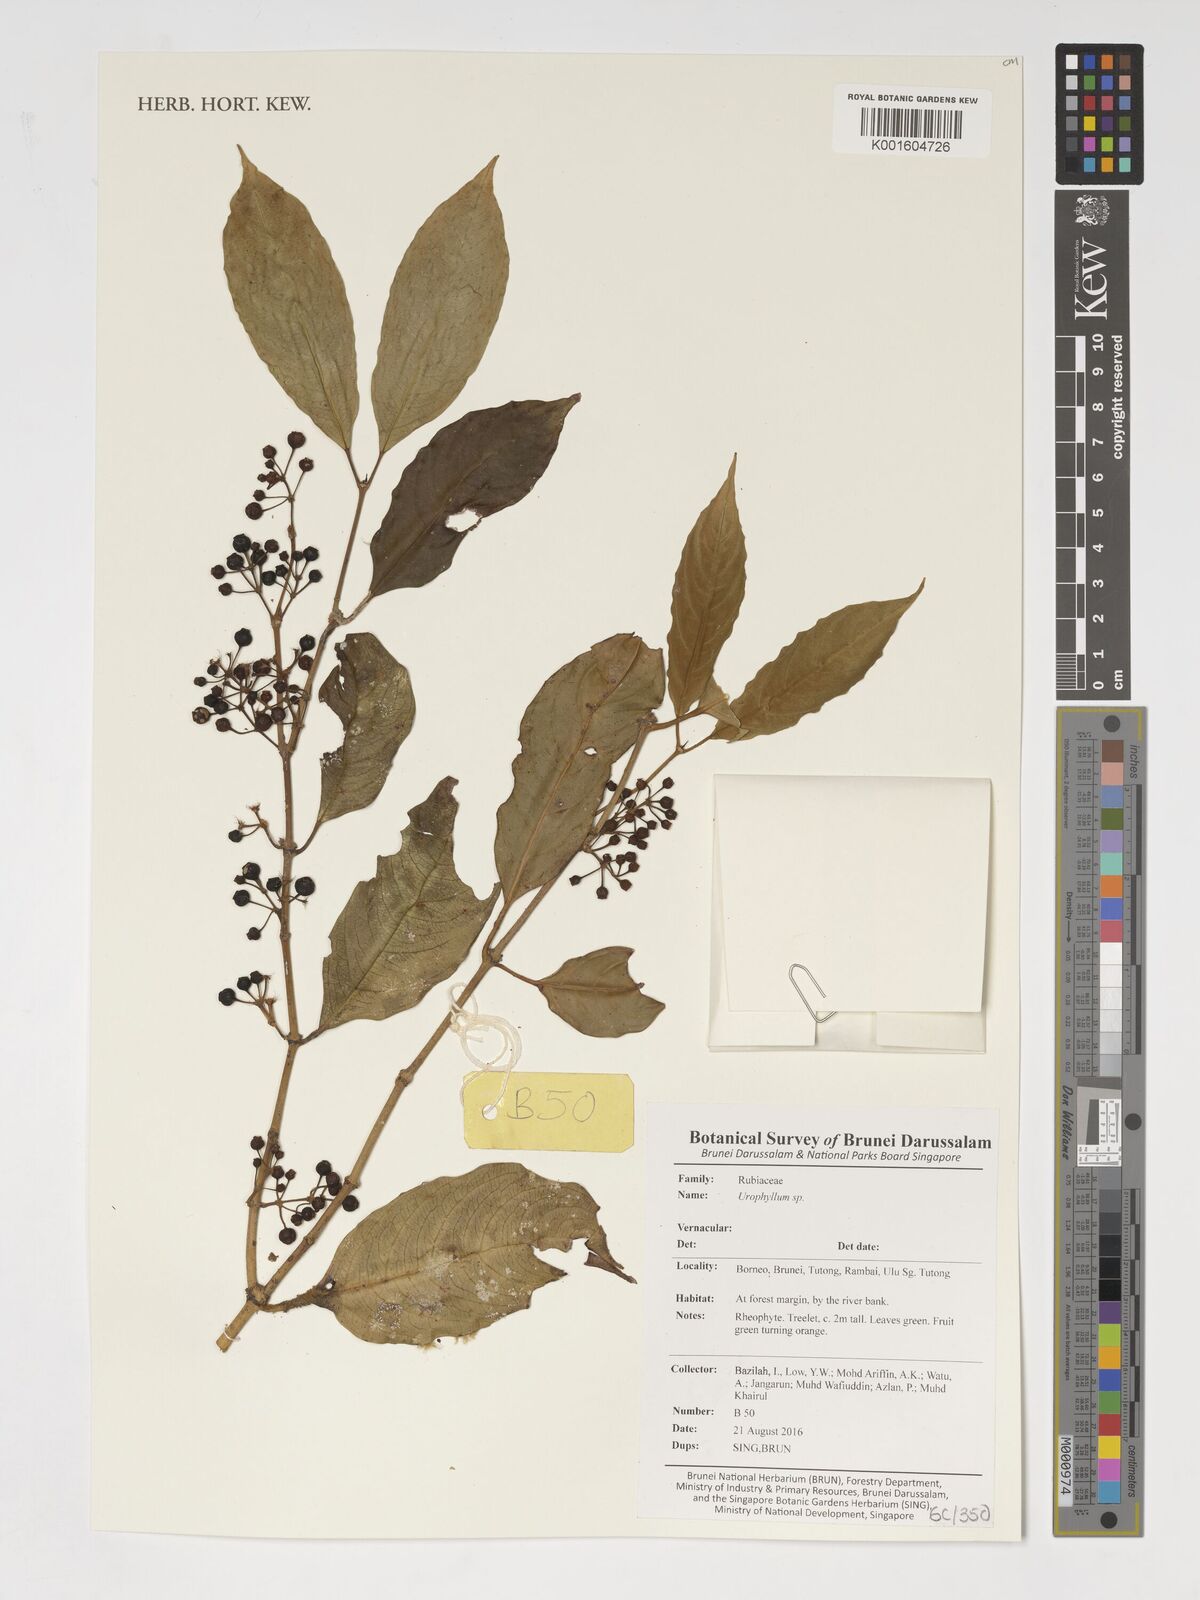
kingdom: Plantae
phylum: Tracheophyta
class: Magnoliopsida
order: Gentianales
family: Rubiaceae
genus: Urophyllum
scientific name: Urophyllum
